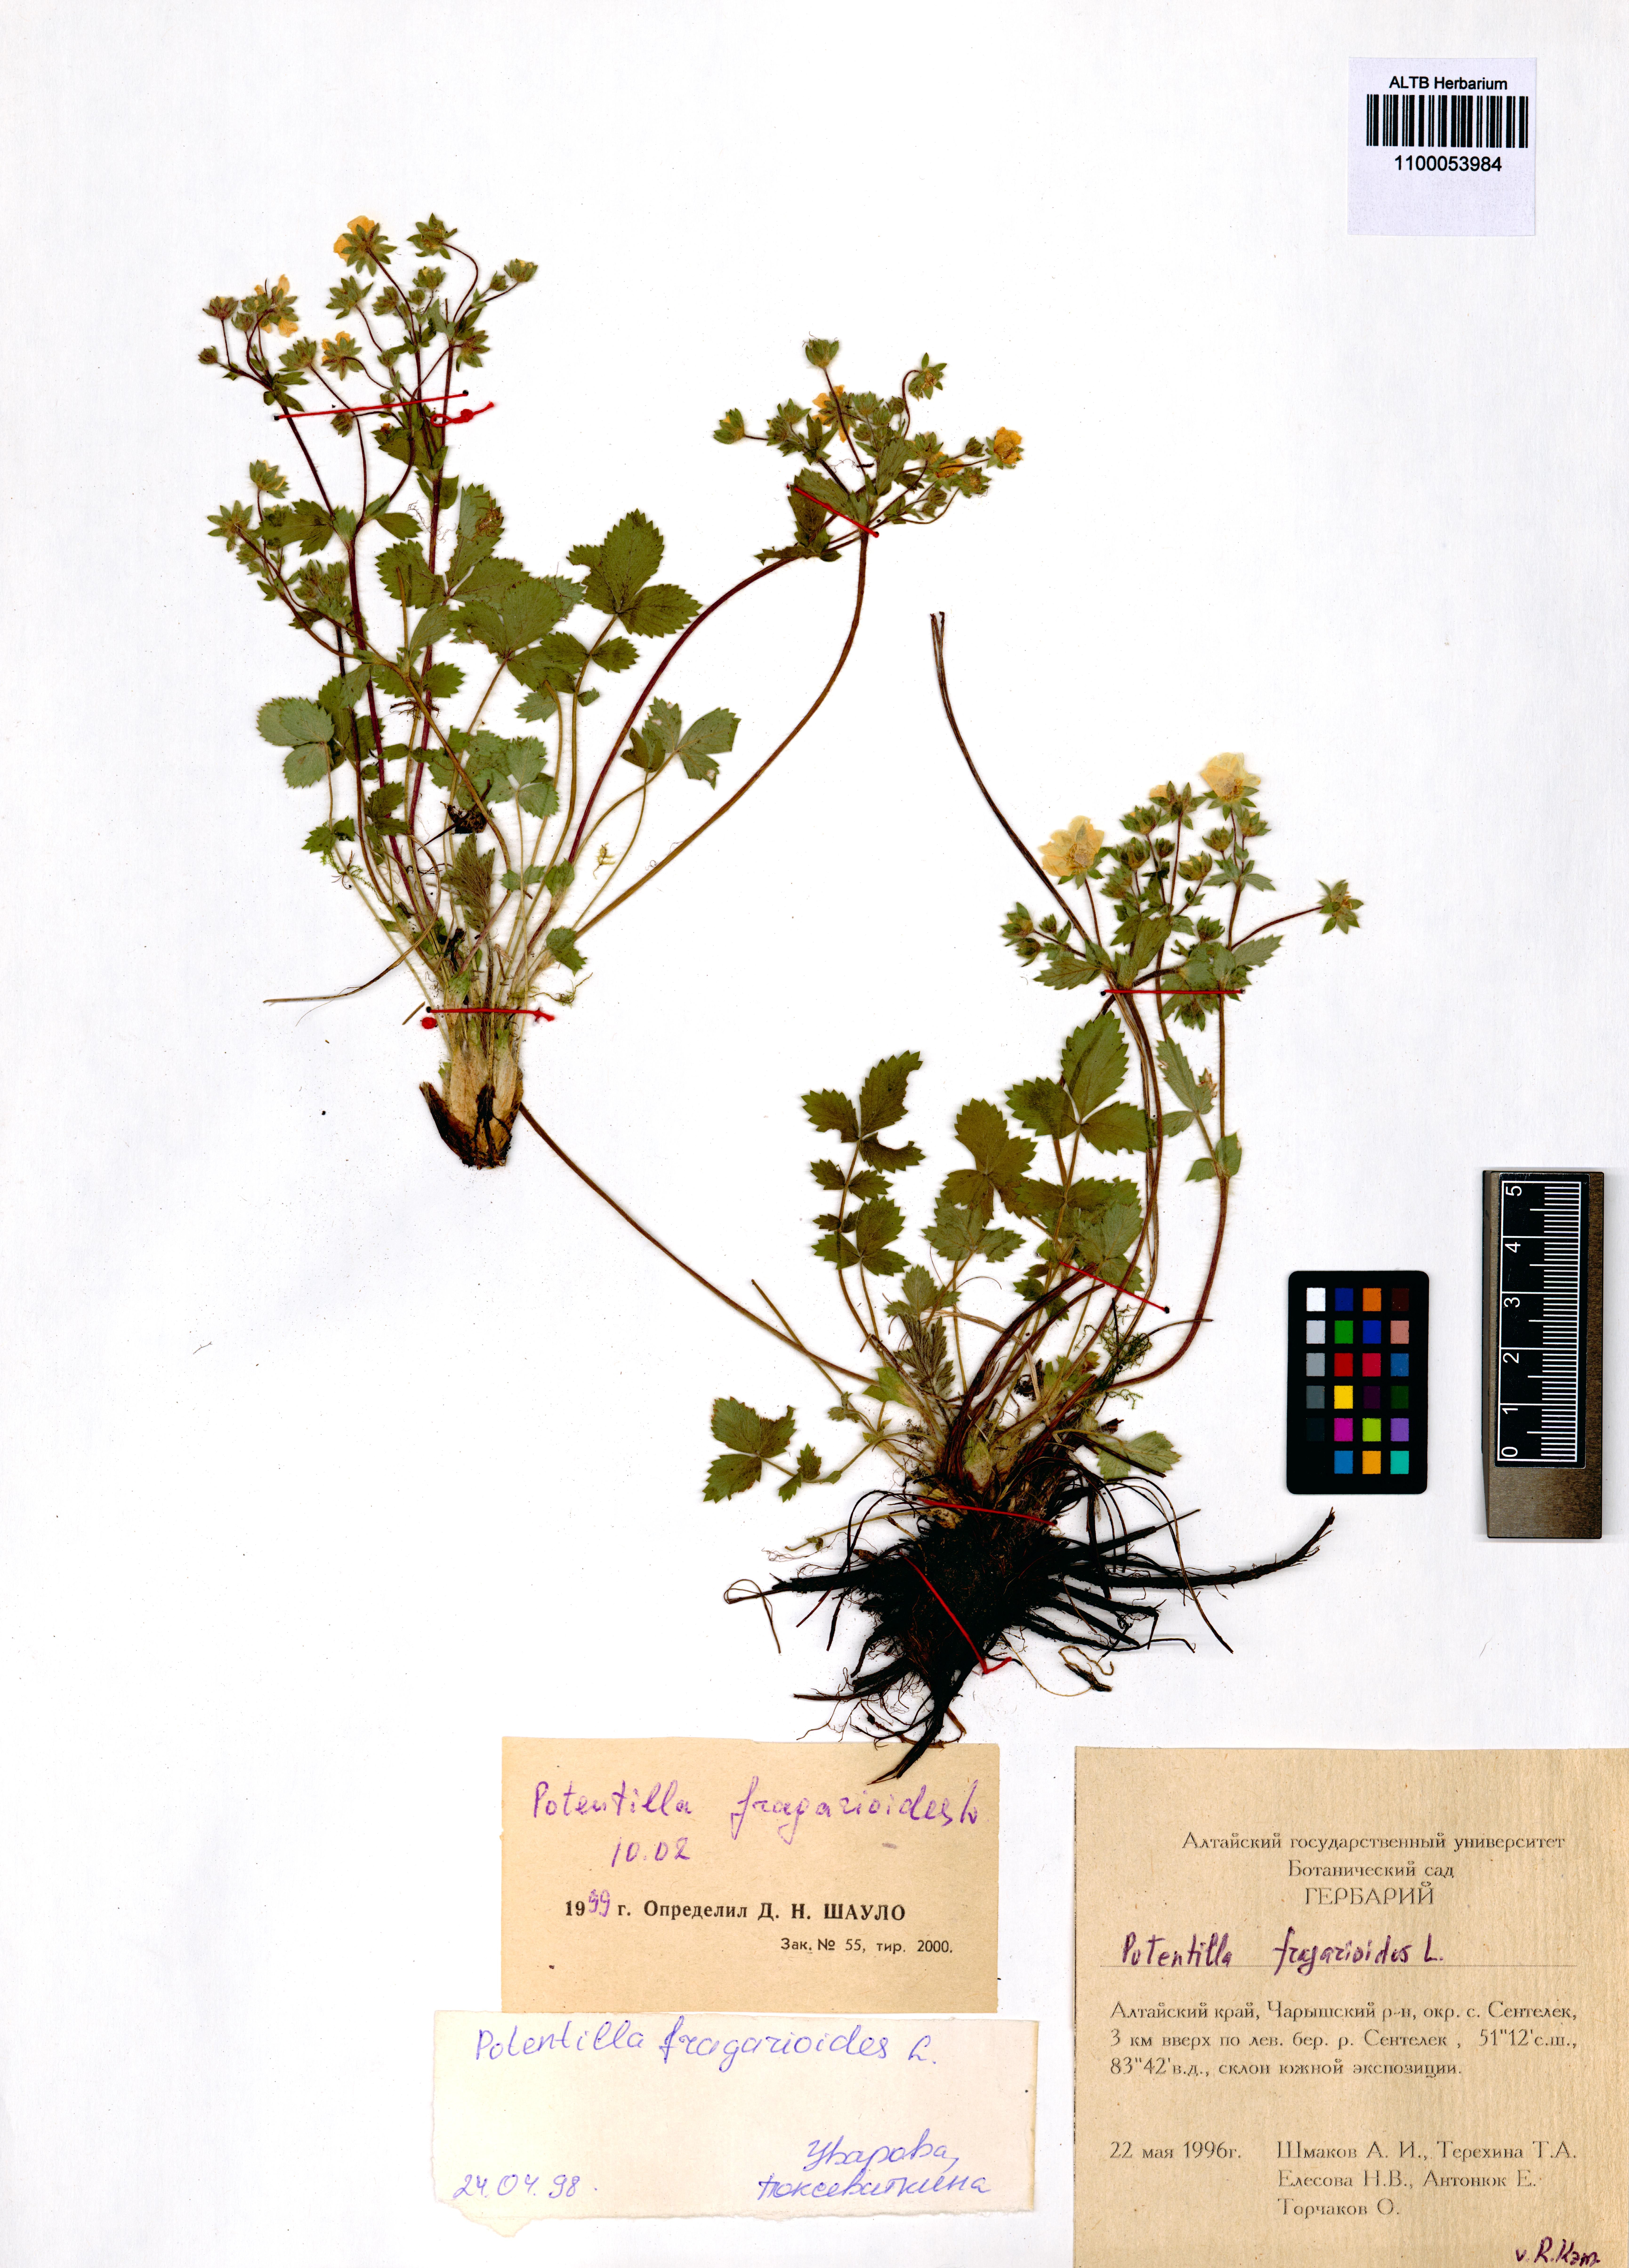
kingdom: Plantae
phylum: Tracheophyta
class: Magnoliopsida
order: Rosales
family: Rosaceae
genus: Potentilla
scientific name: Potentilla fragarioides
